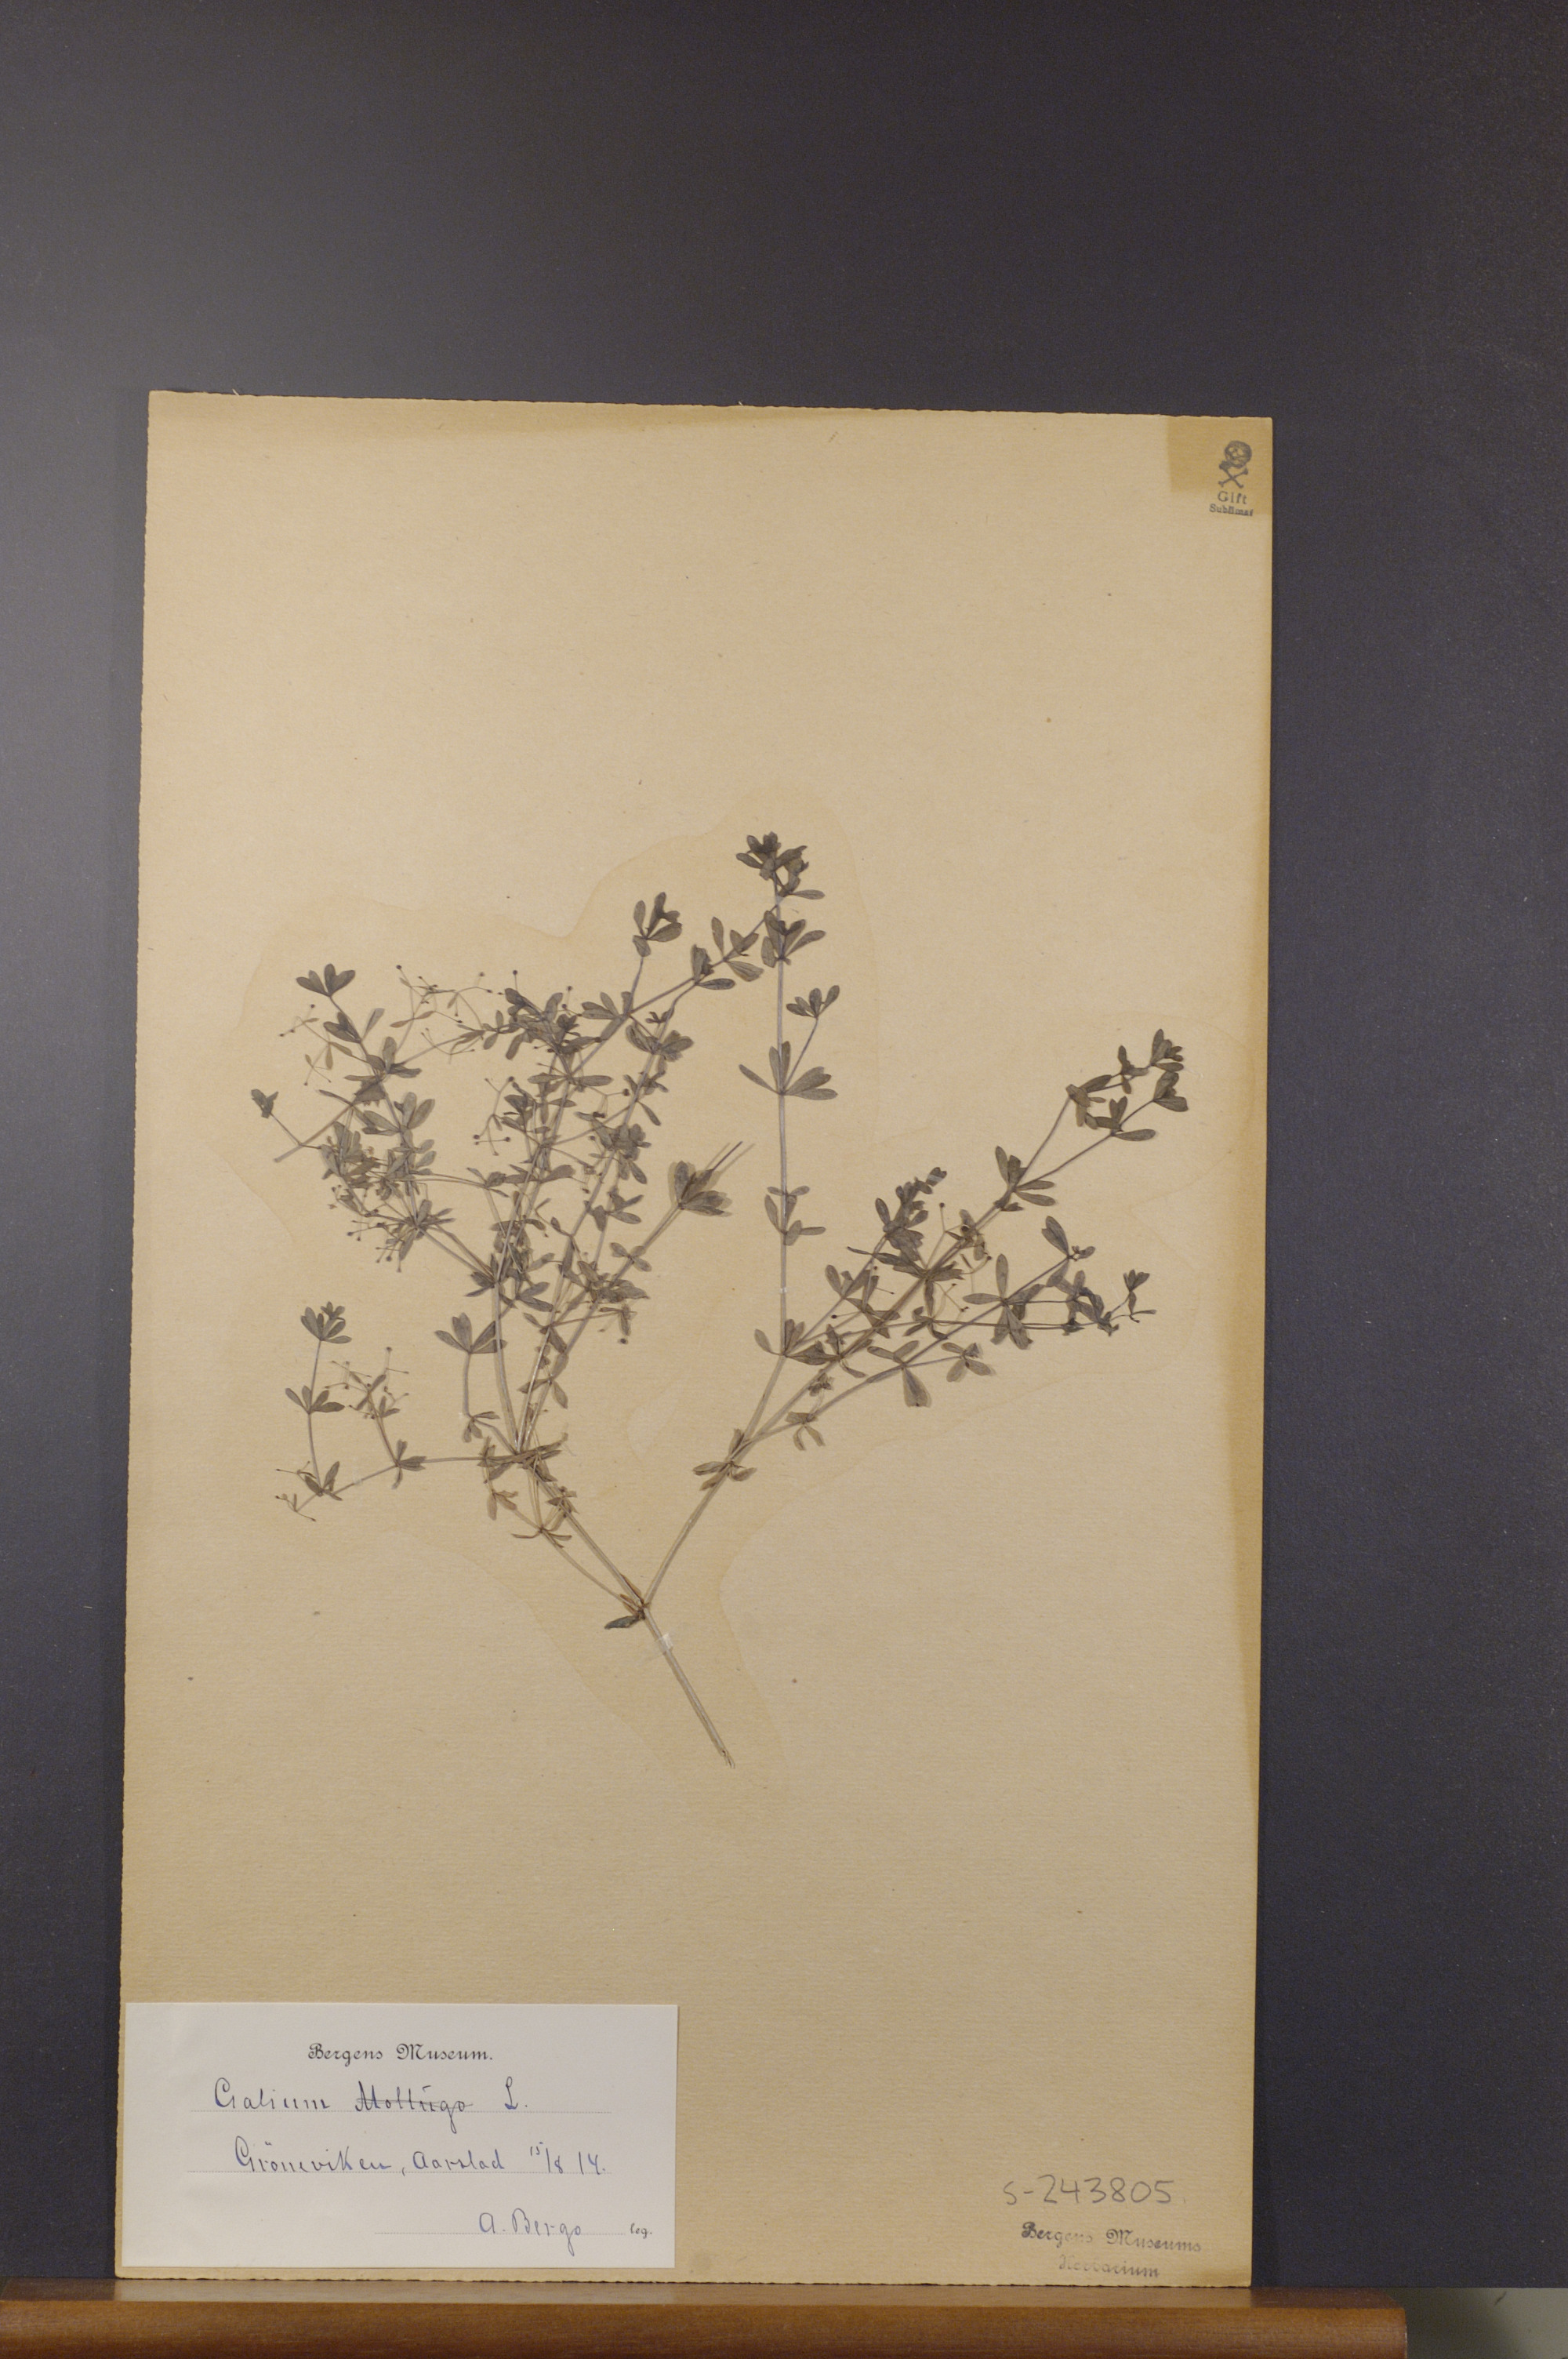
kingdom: Plantae
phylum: Tracheophyta
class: Magnoliopsida
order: Gentianales
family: Rubiaceae
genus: Galium
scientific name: Galium mollugo
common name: Hedge bedstraw
